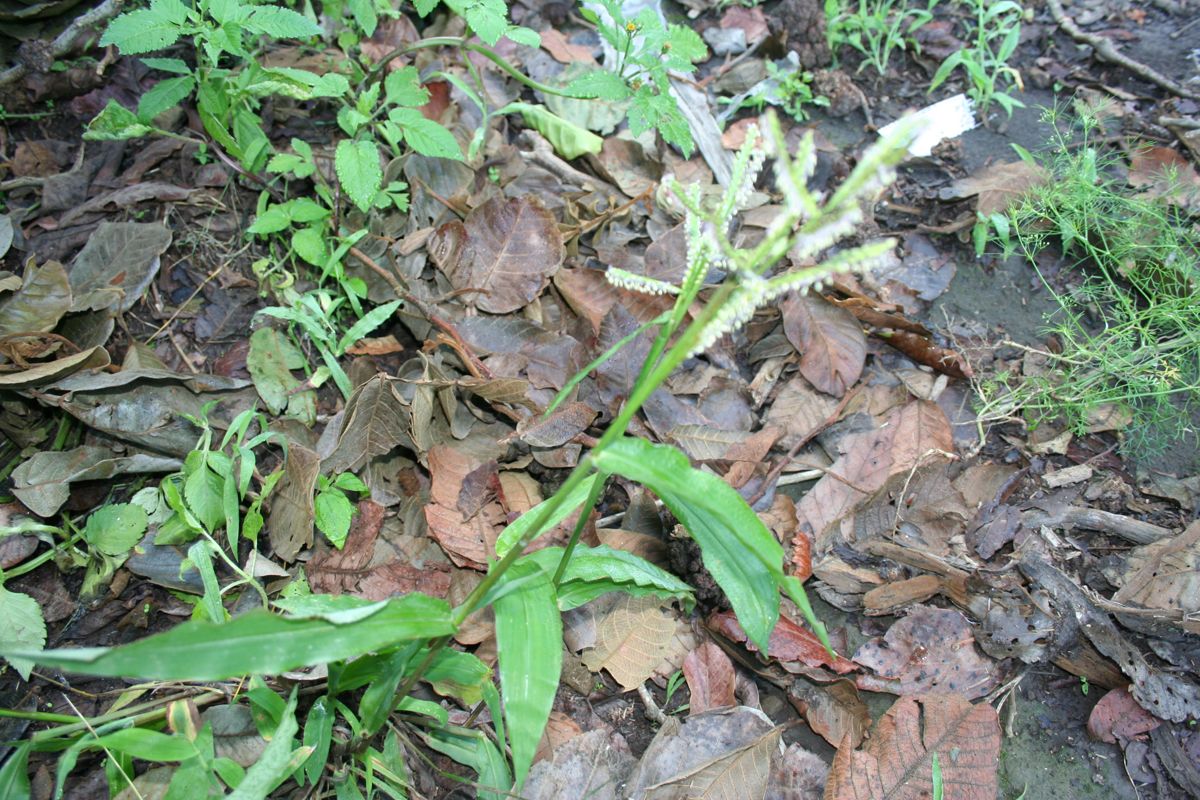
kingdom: Plantae
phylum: Tracheophyta
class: Liliopsida
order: Poales
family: Poaceae
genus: Paspalum
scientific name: Paspalum
